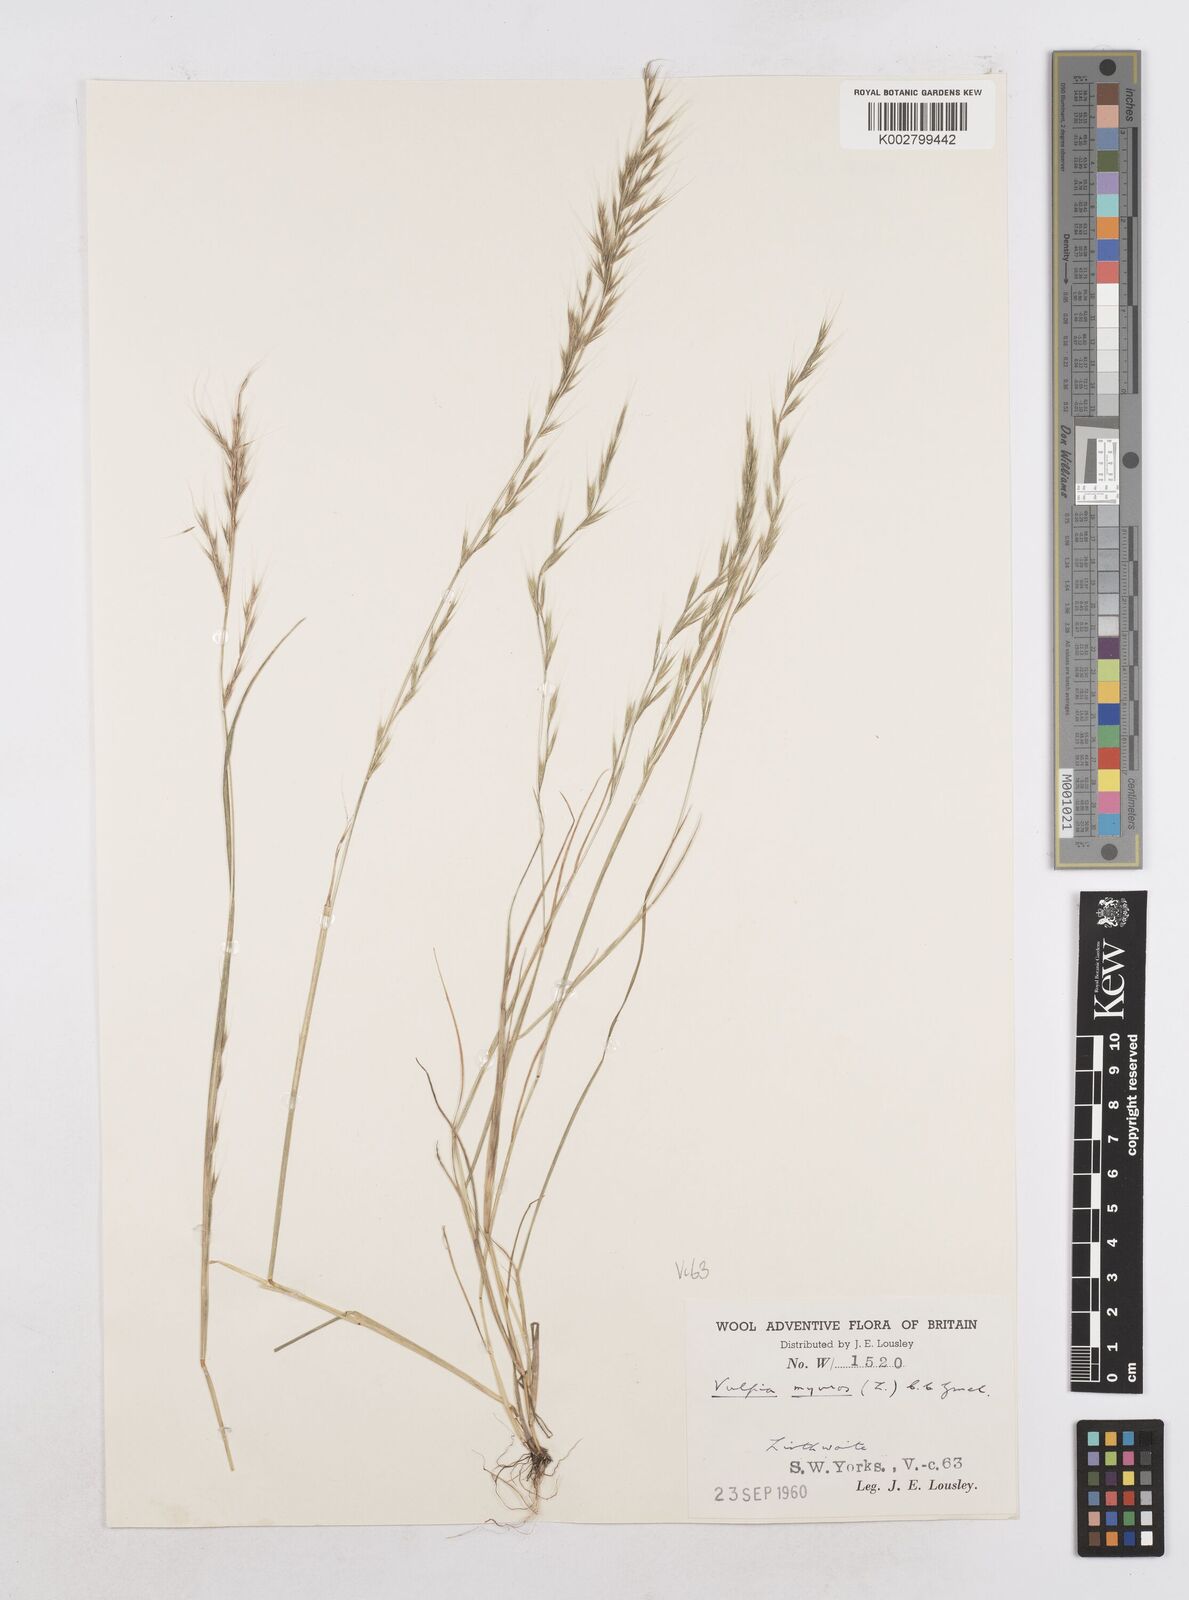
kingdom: Plantae
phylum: Tracheophyta
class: Liliopsida
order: Poales
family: Poaceae
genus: Festuca
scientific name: Festuca myuros
